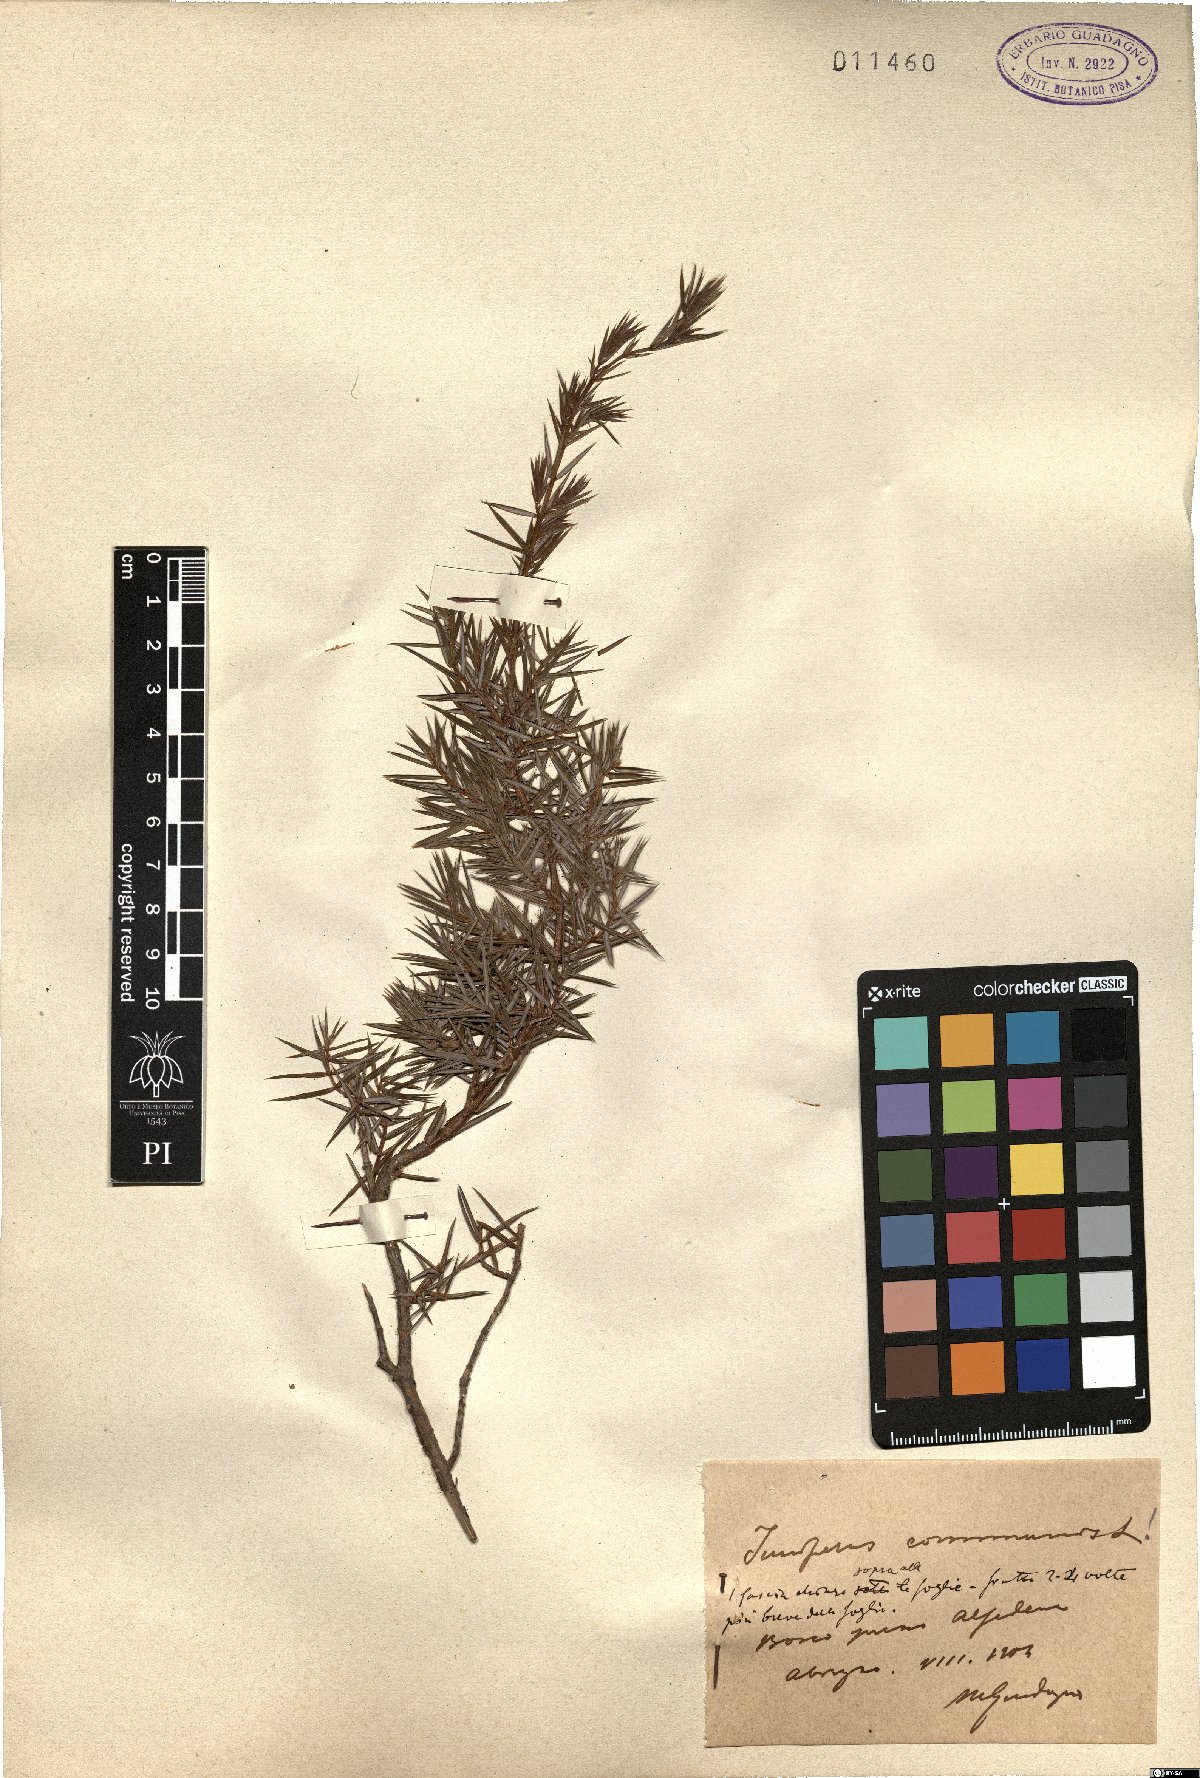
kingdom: Plantae
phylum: Tracheophyta
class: Pinopsida
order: Pinales
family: Cupressaceae
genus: Juniperus
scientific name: Juniperus communis
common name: Common juniper
